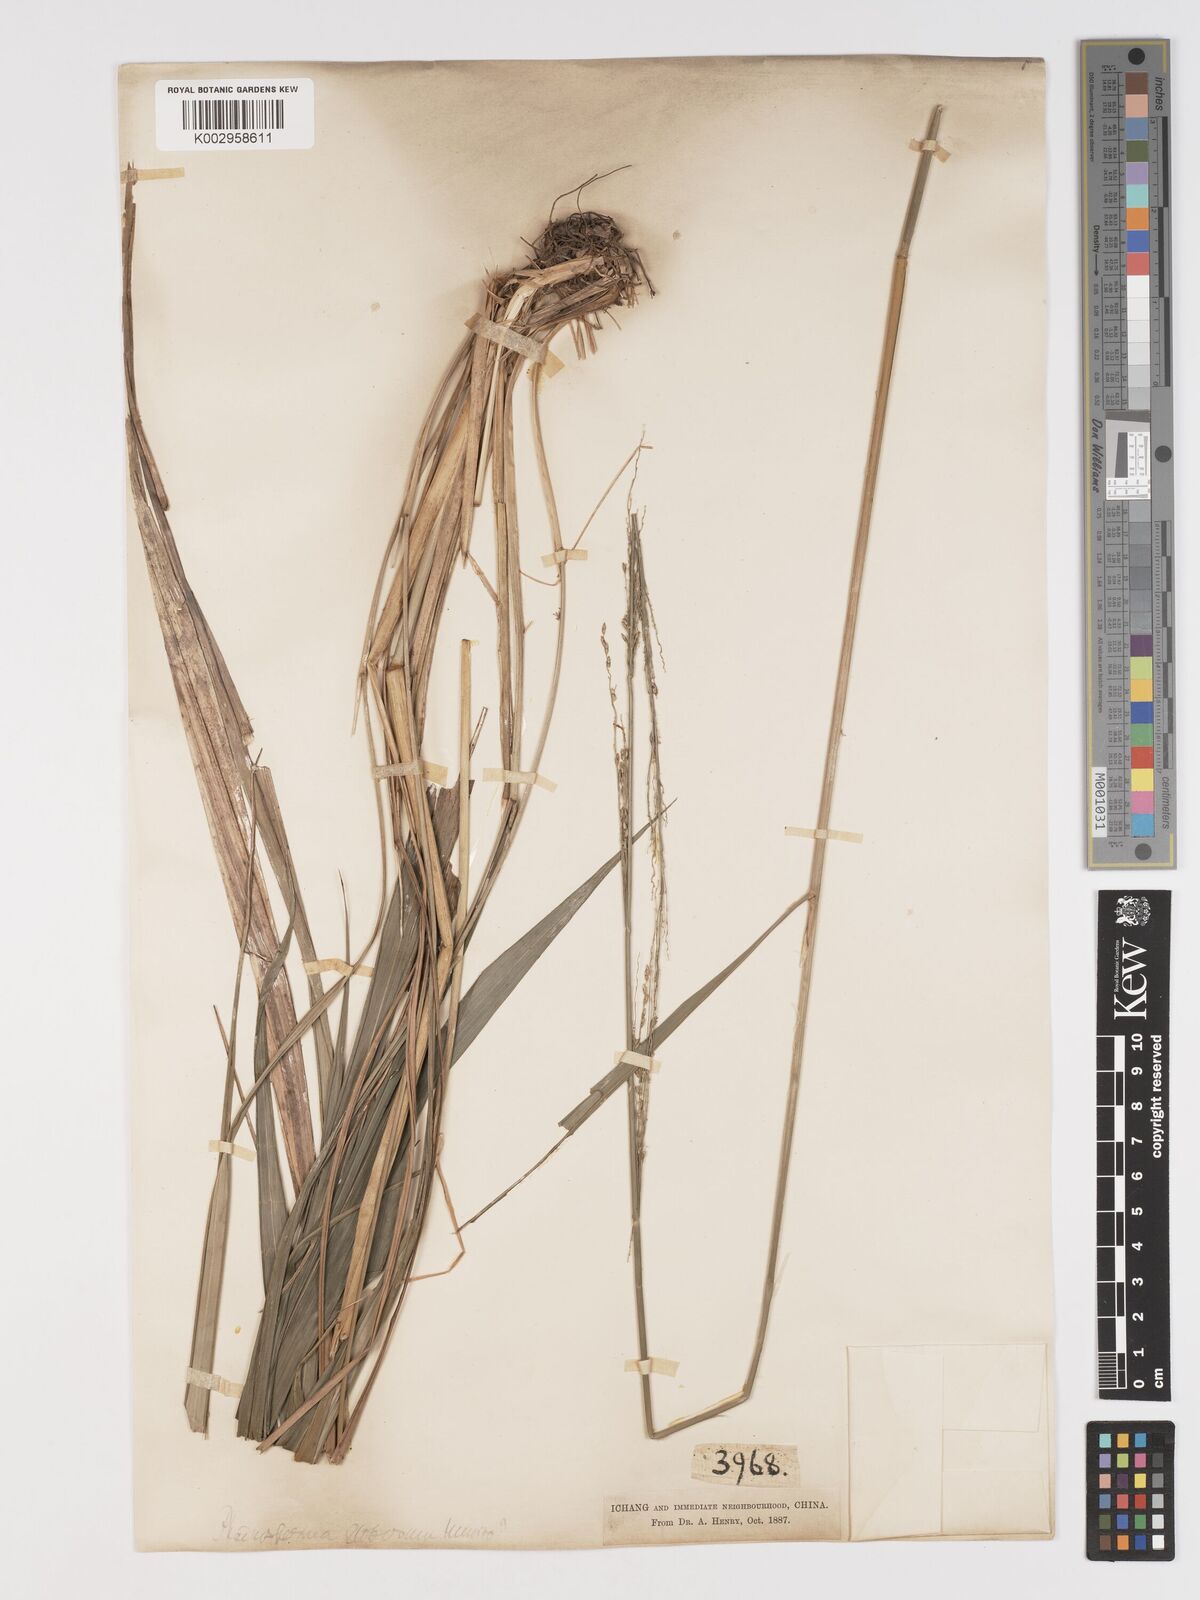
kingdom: Plantae
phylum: Tracheophyta
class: Liliopsida
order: Poales
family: Poaceae
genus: Phaenosperma
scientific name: Phaenosperma globosum
